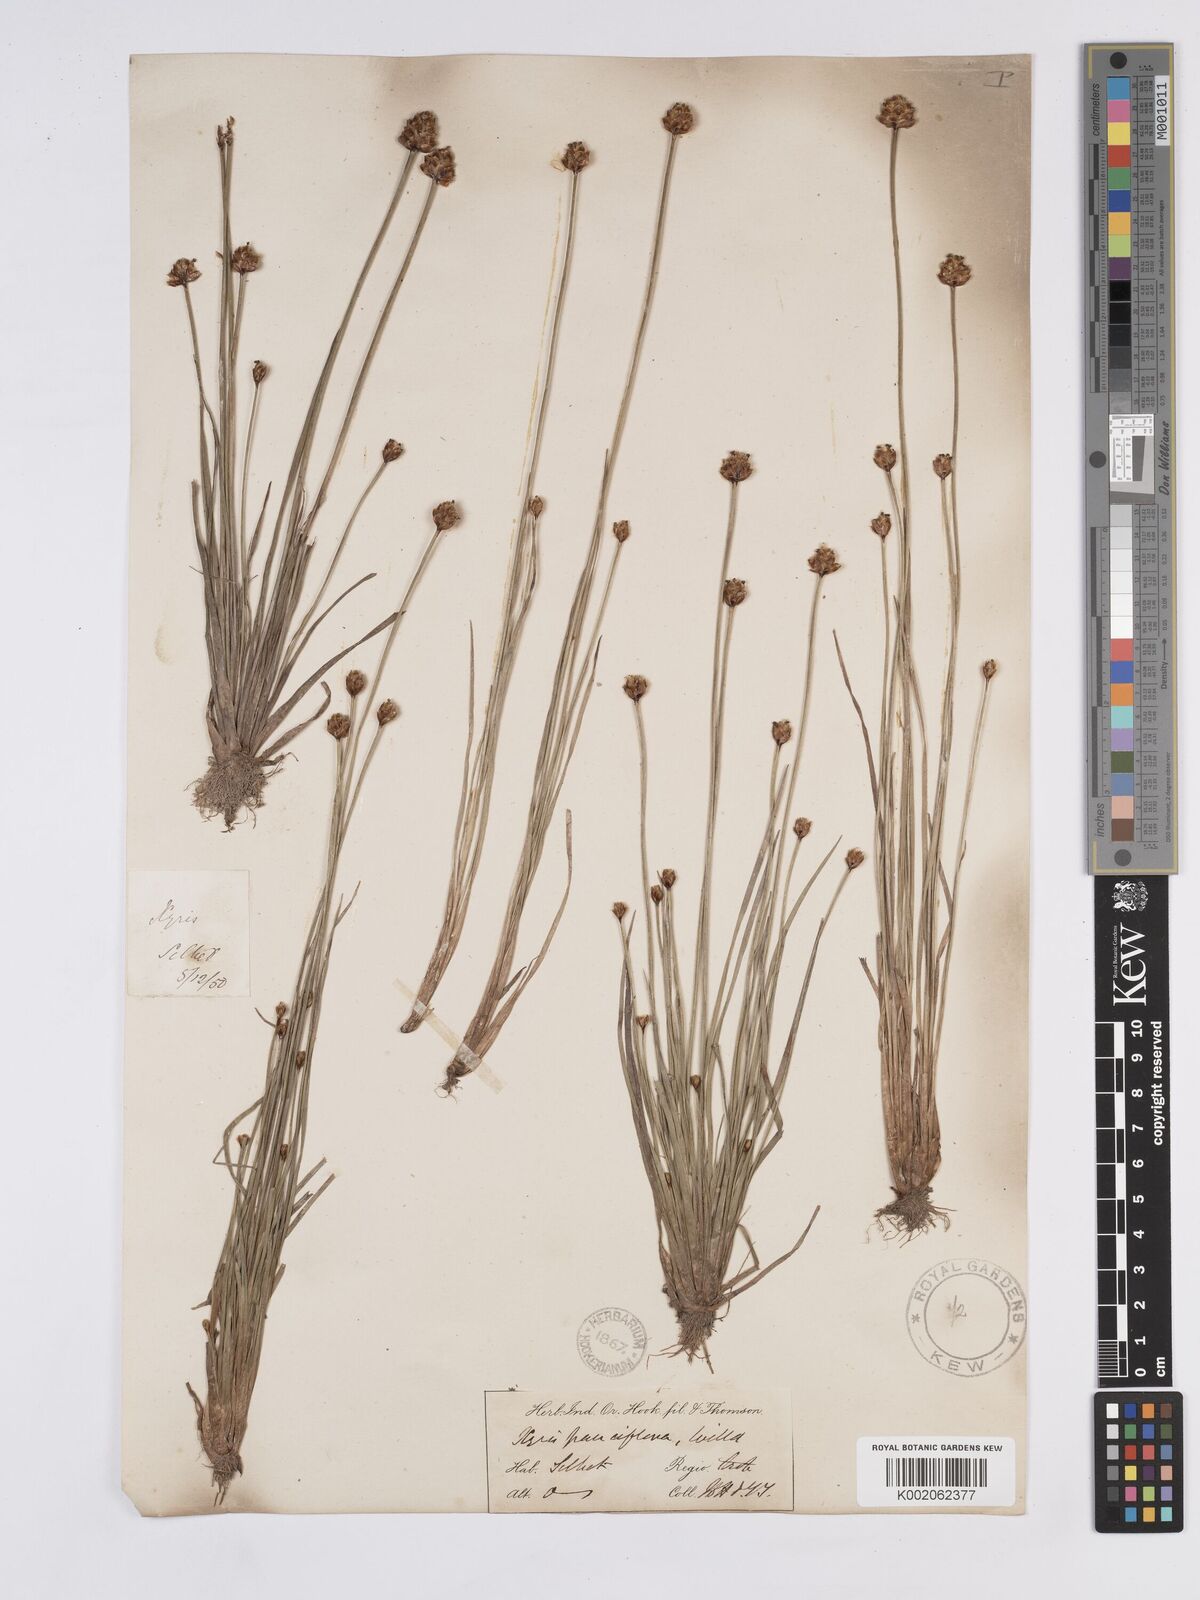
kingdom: Plantae
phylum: Tracheophyta
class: Liliopsida
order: Poales
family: Xyridaceae
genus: Xyris
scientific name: Xyris pauciflora
